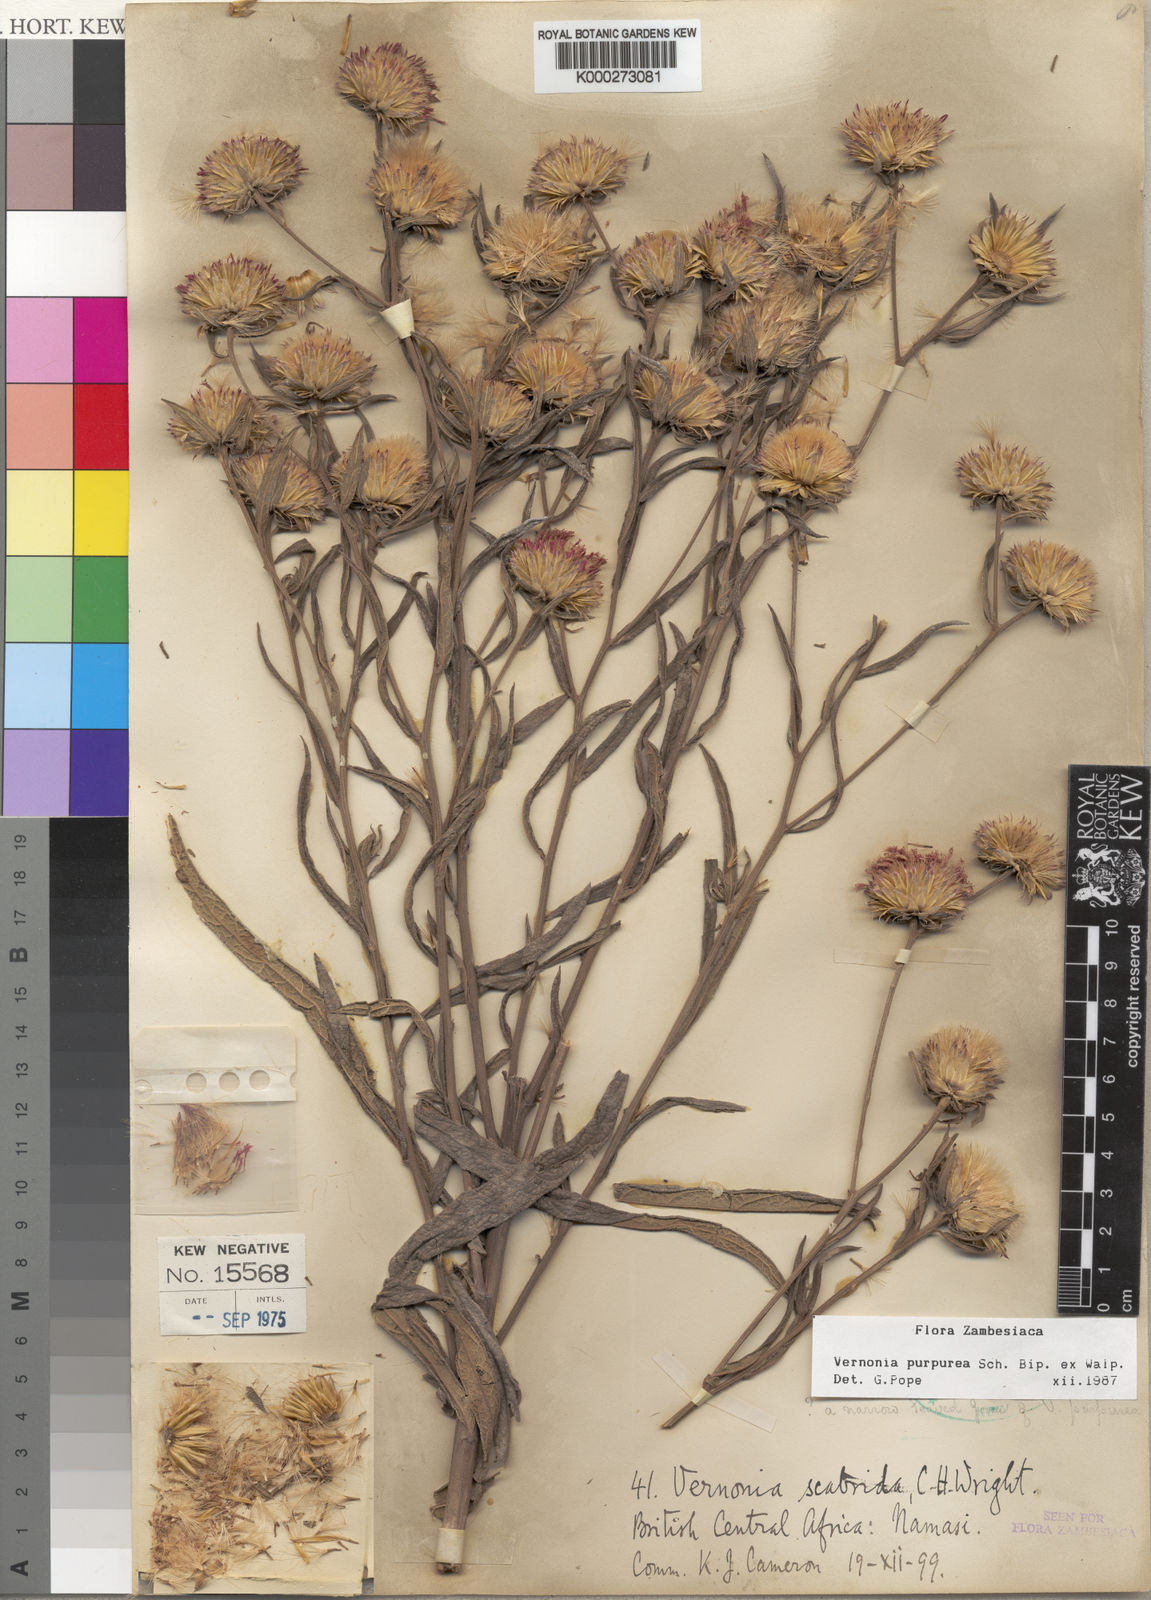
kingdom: Plantae
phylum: Tracheophyta
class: Magnoliopsida
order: Asterales
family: Asteraceae
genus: Nothovernonia
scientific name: Nothovernonia purpurea
